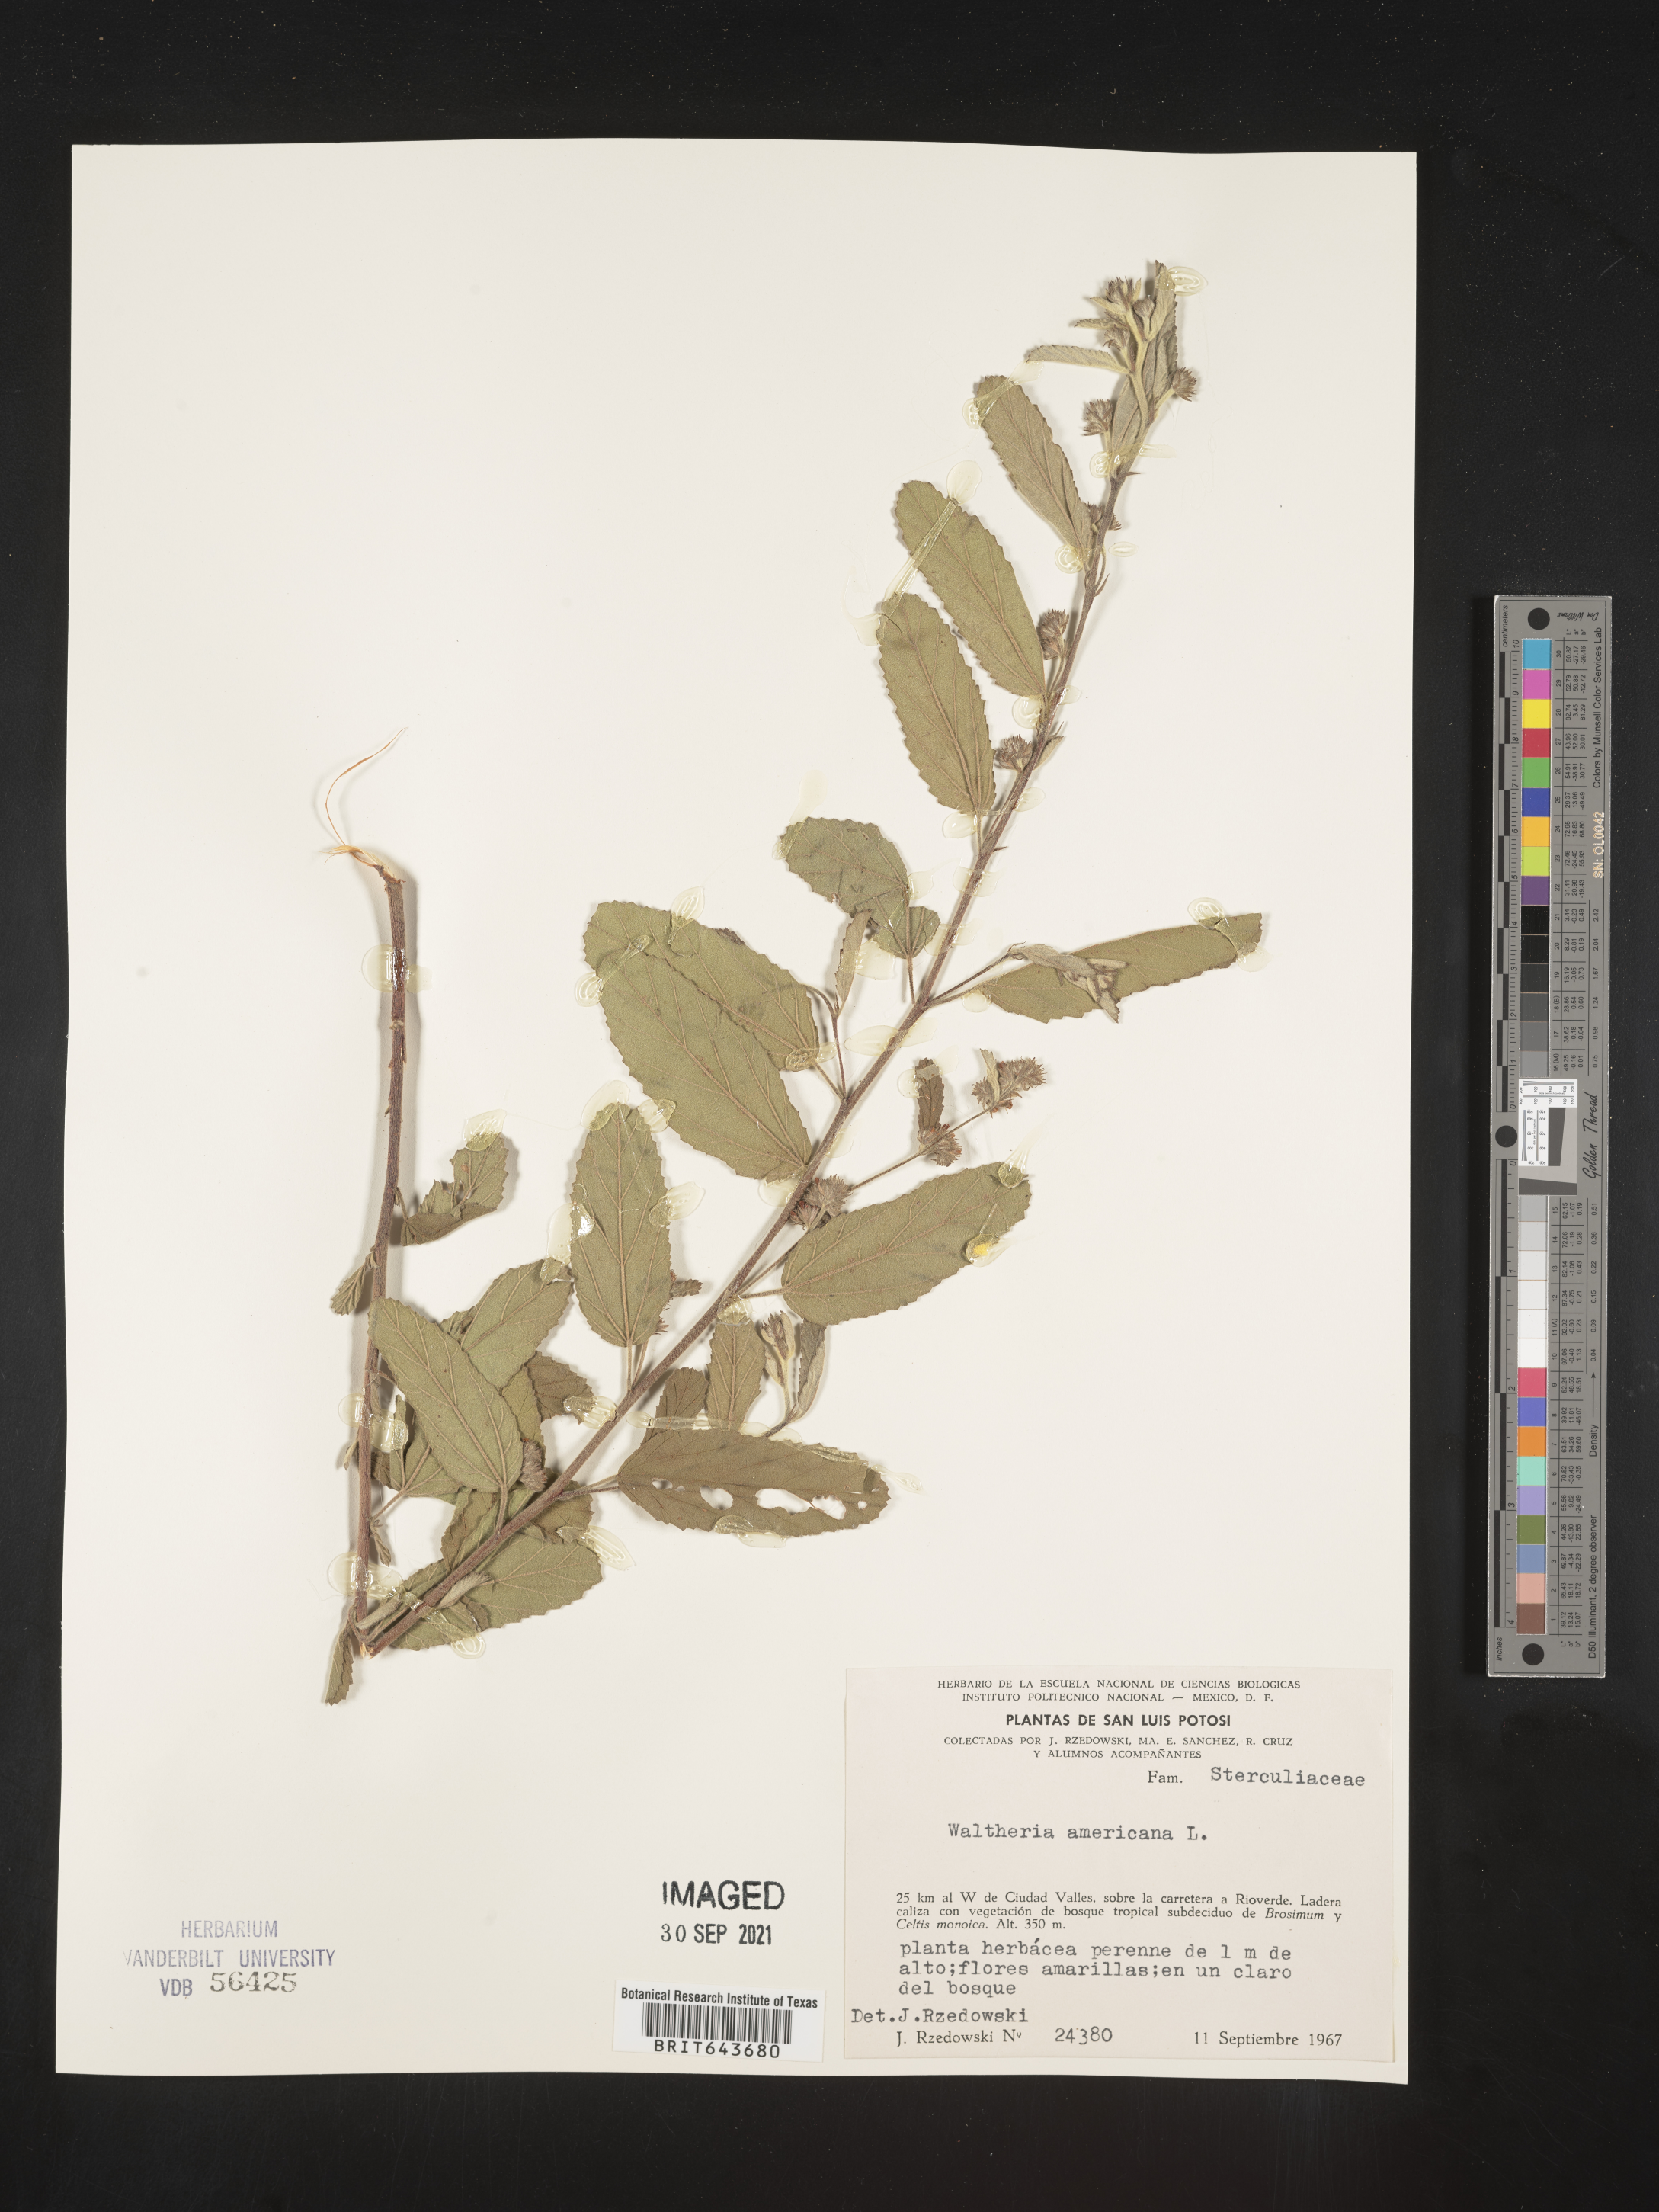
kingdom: Plantae
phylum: Tracheophyta
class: Magnoliopsida
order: Malvales
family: Malvaceae
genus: Waltheria
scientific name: Waltheria
